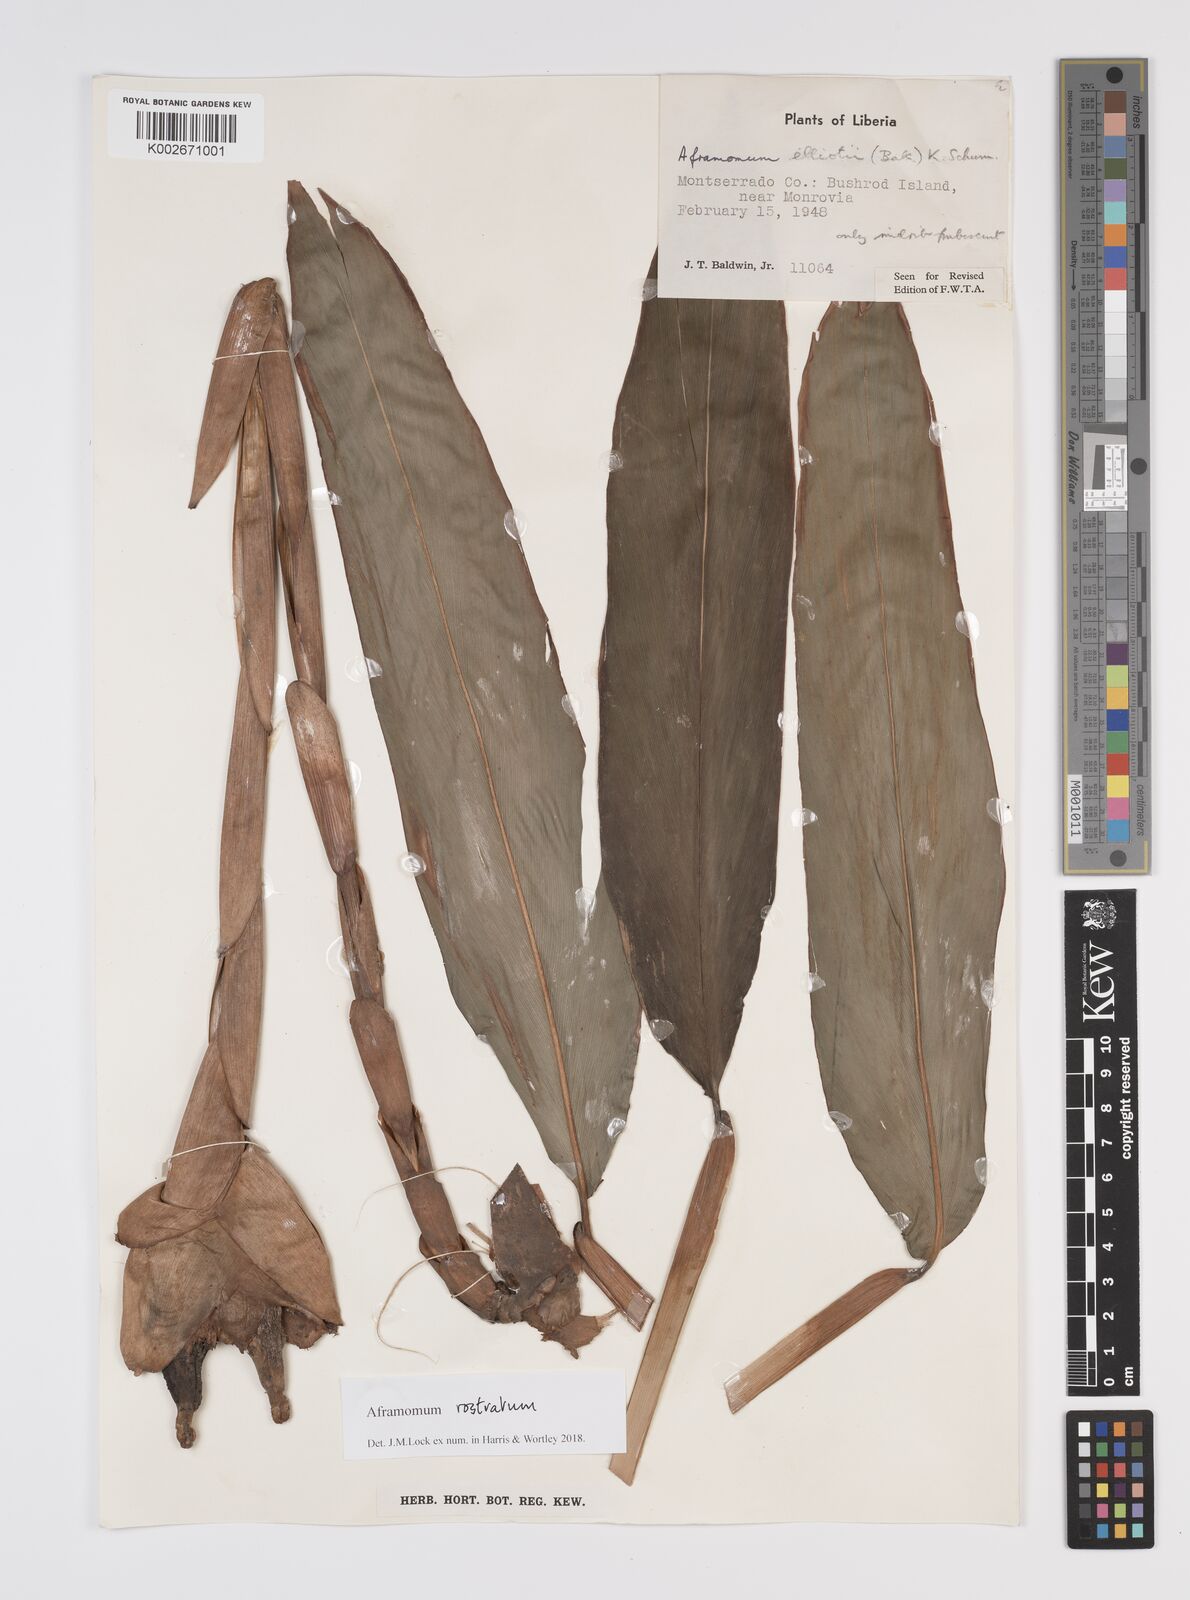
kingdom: Plantae
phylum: Tracheophyta
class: Liliopsida
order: Zingiberales
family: Zingiberaceae
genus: Aframomum
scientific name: Aframomum rostratum
